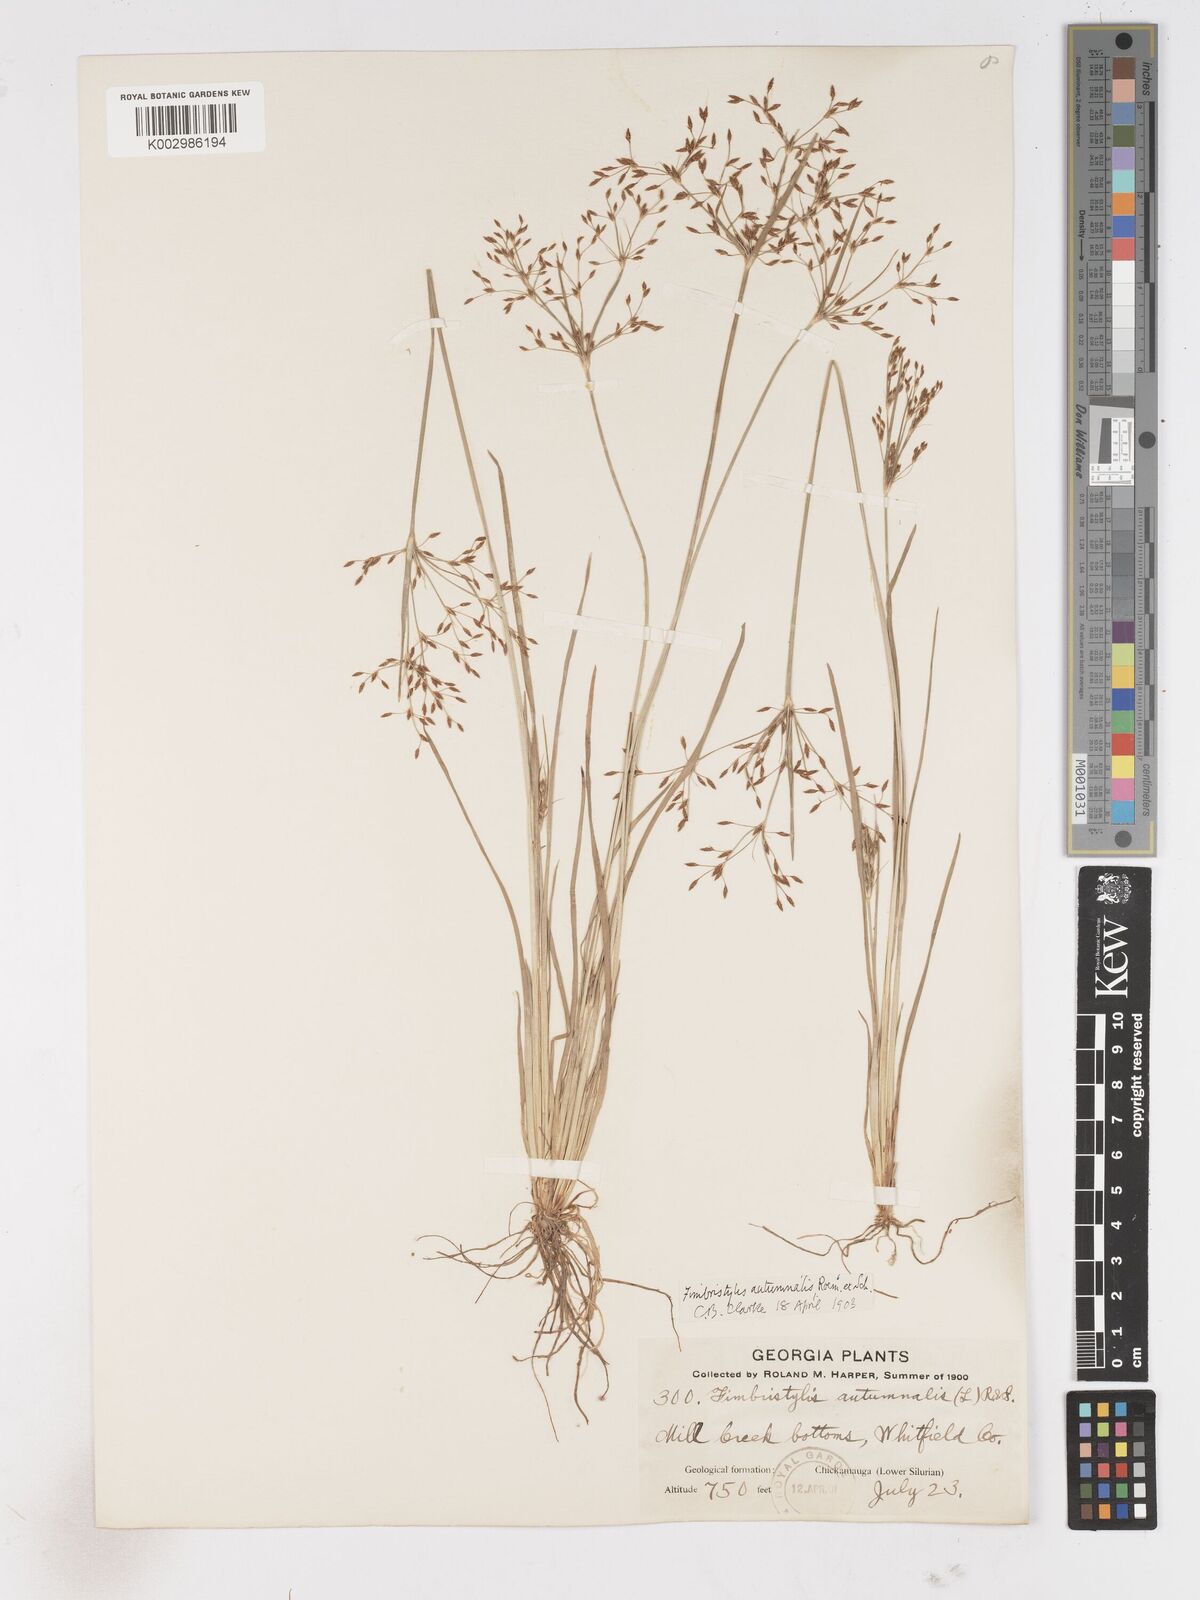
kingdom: Plantae
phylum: Tracheophyta
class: Liliopsida
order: Poales
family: Cyperaceae
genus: Fimbristylis
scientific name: Fimbristylis autumnalis
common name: Slender fimbristylis
